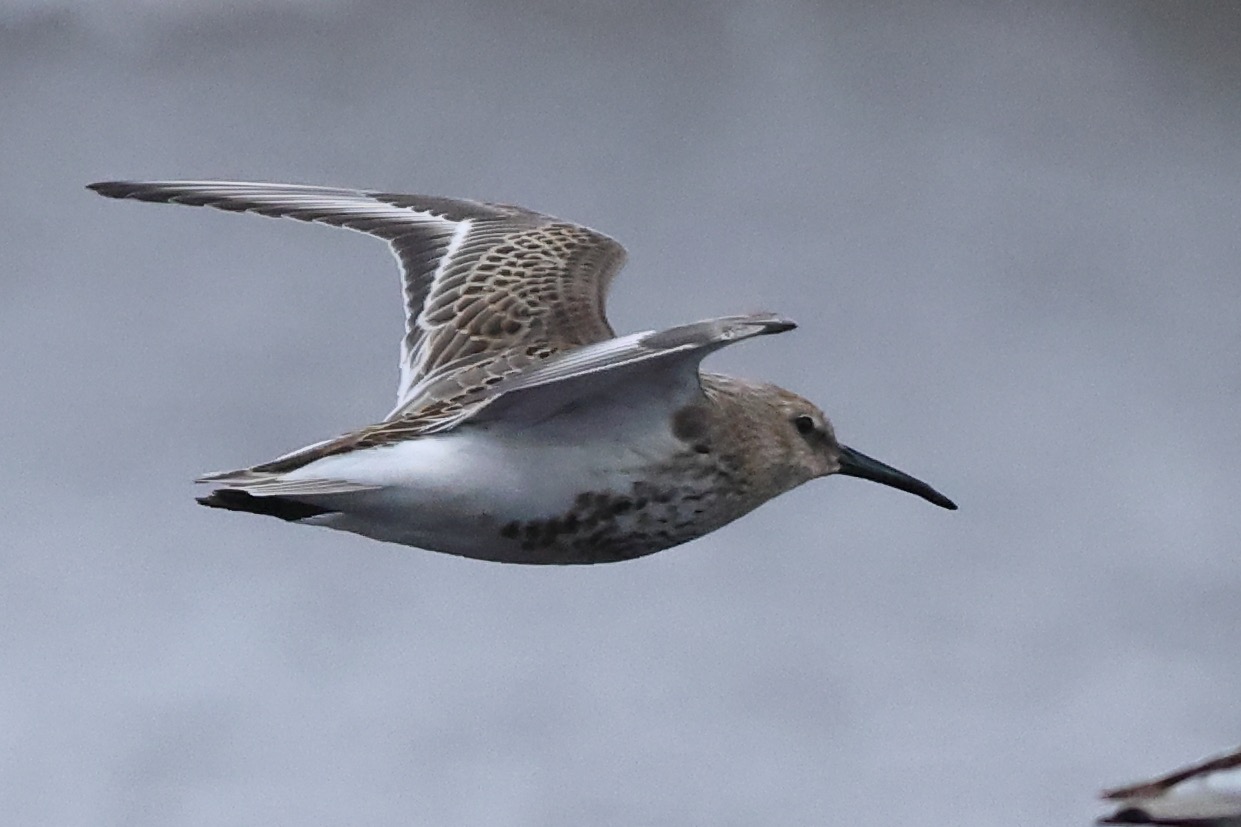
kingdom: Animalia
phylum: Chordata
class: Aves
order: Charadriiformes
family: Scolopacidae
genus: Calidris
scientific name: Calidris alpina
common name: Almindelig ryle
